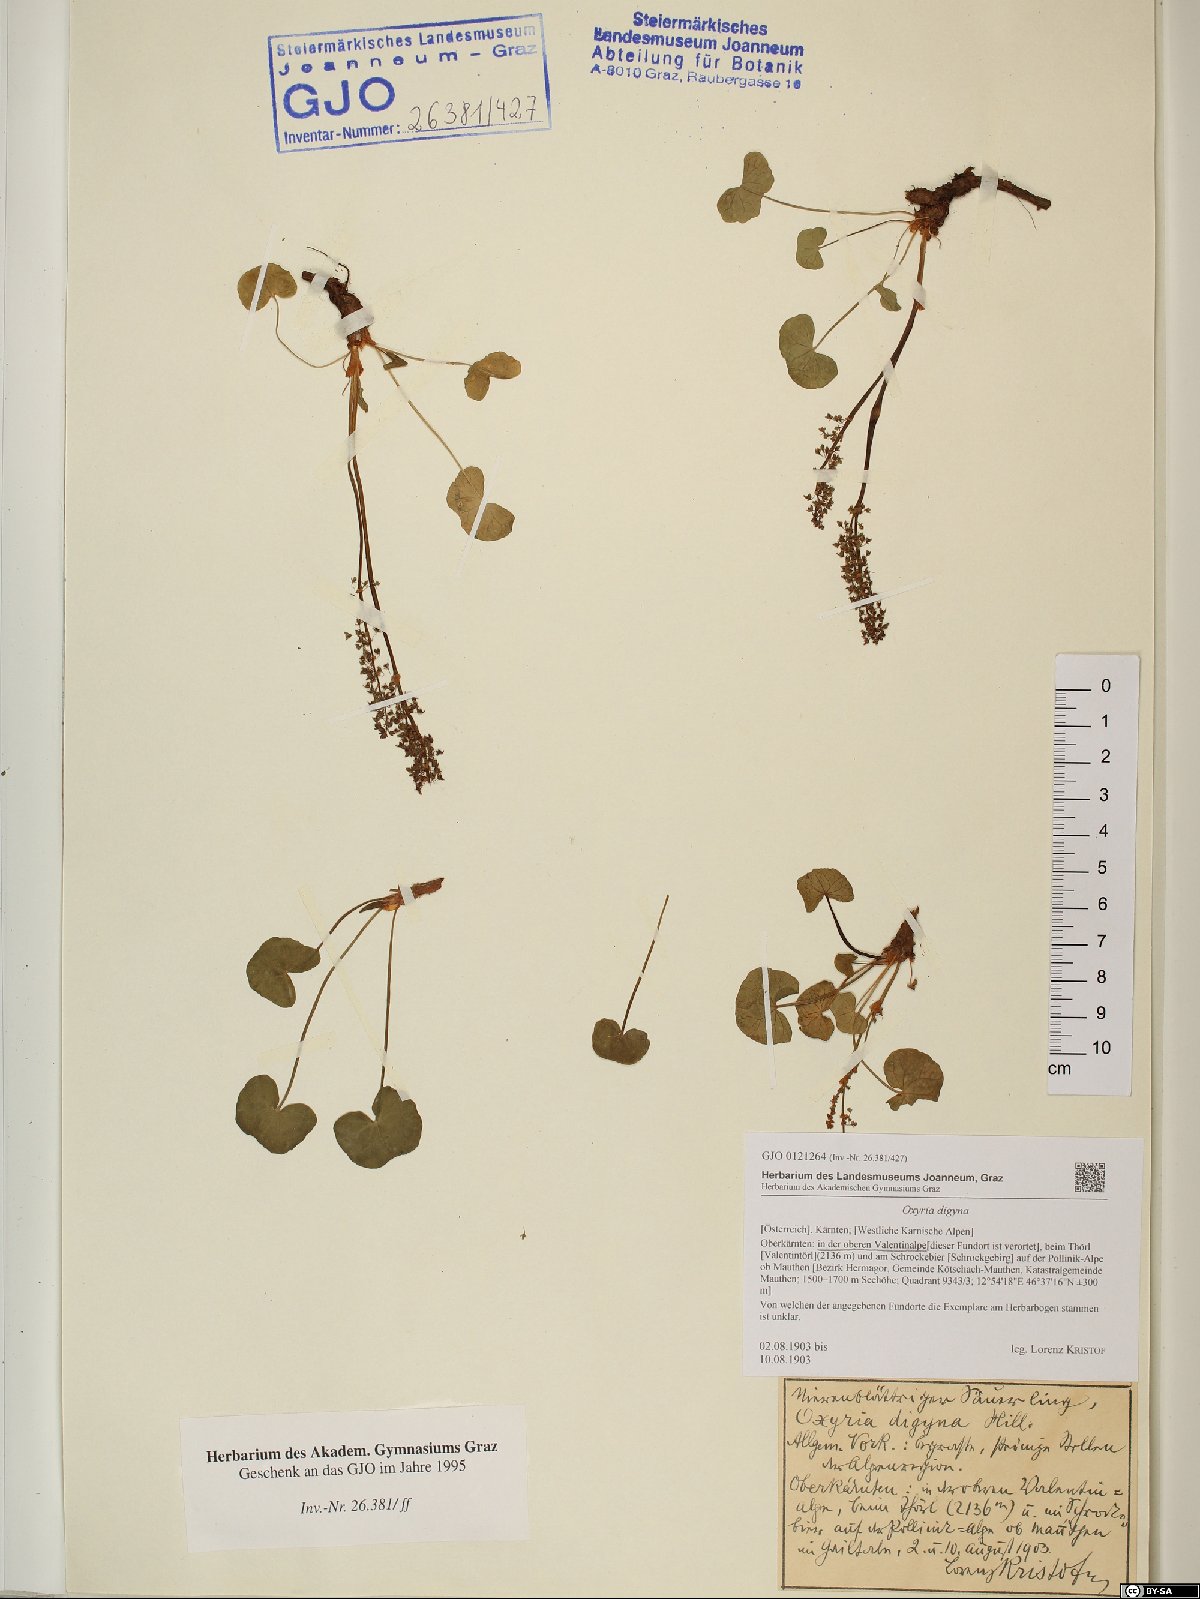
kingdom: Plantae
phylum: Tracheophyta
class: Magnoliopsida
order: Caryophyllales
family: Polygonaceae
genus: Oxyria
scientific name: Oxyria digyna
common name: Alpine mountain-sorrel
